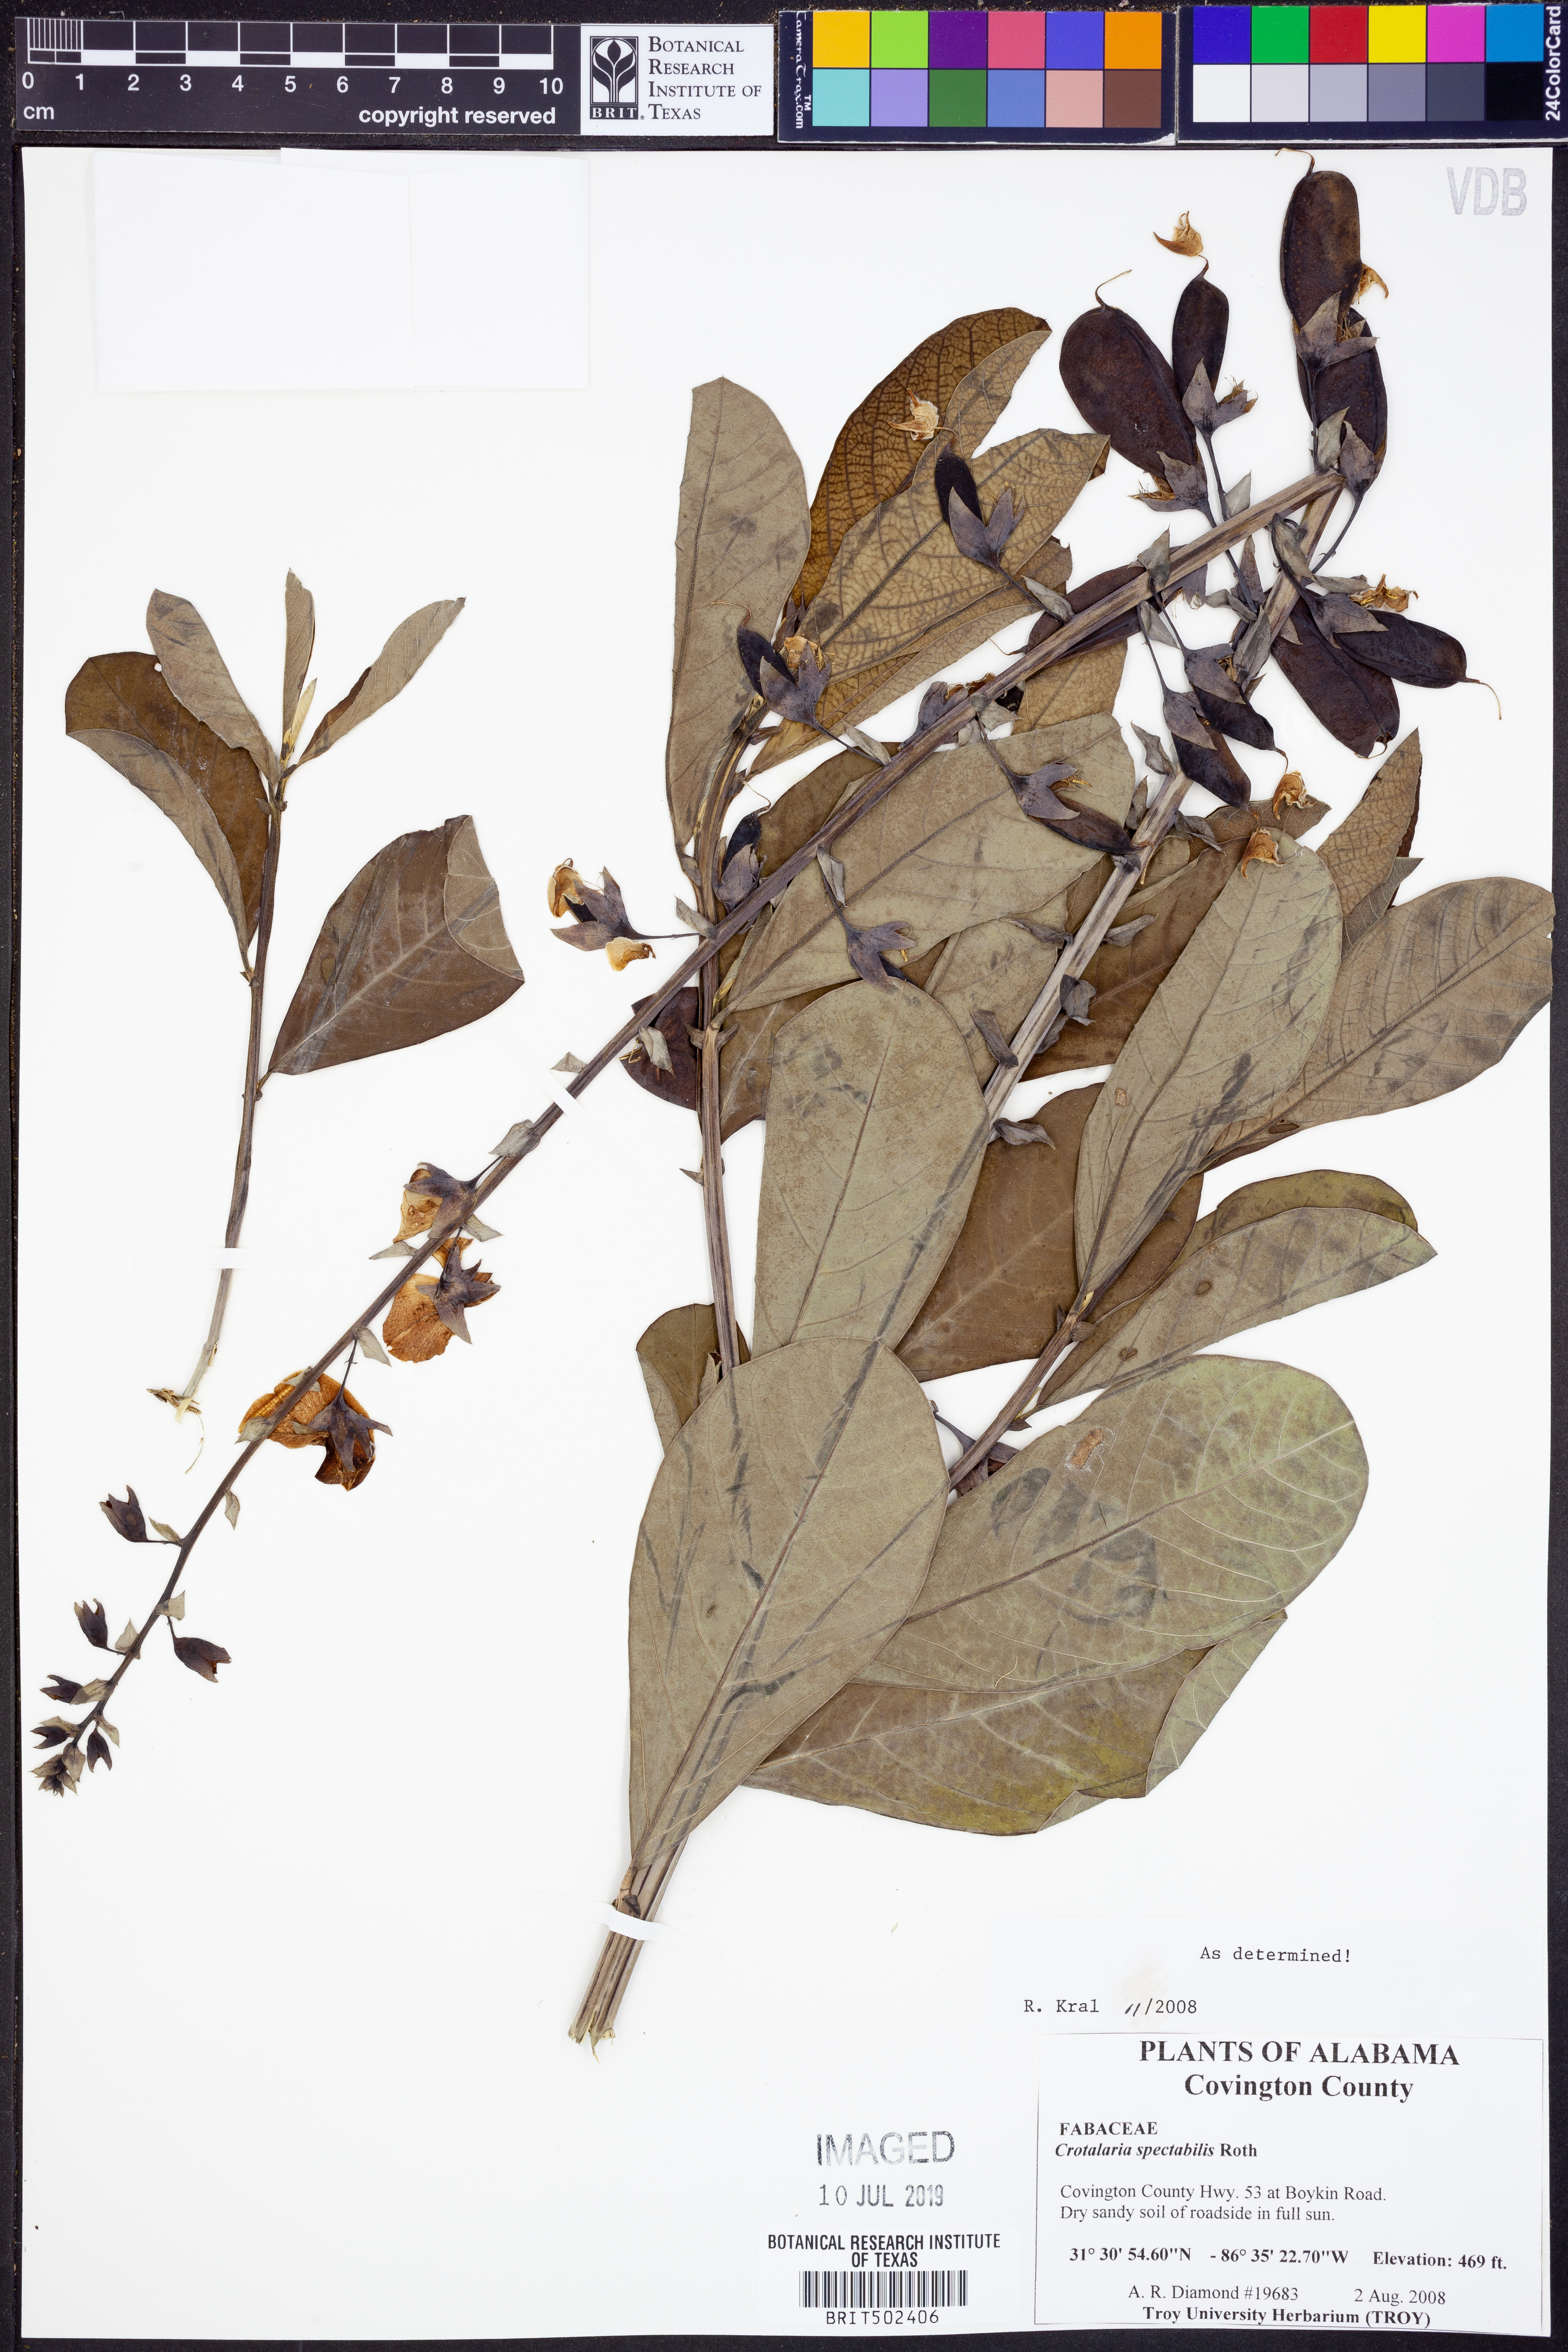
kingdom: Plantae
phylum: Tracheophyta
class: Magnoliopsida
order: Fabales
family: Fabaceae
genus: Crotalaria
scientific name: Crotalaria spectabilis
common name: Showy rattlebox
